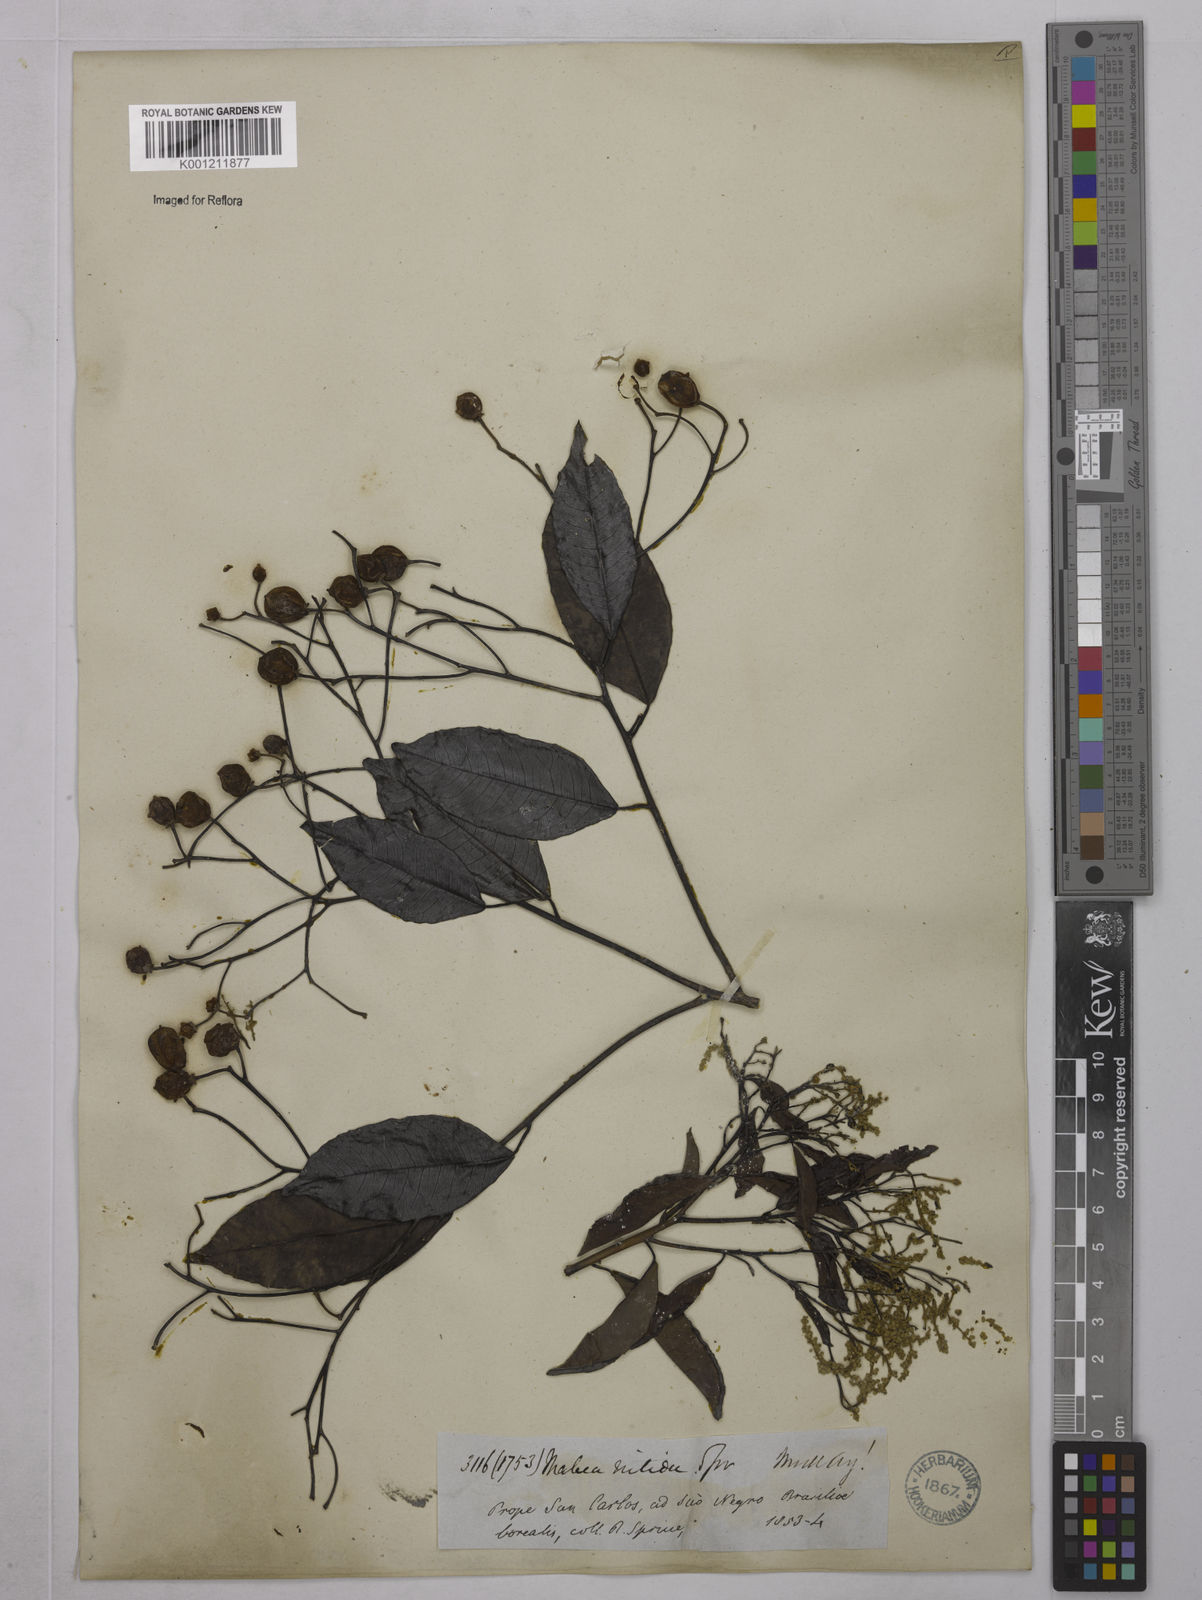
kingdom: Plantae
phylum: Tracheophyta
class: Magnoliopsida
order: Malpighiales
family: Euphorbiaceae
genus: Mabea
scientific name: Mabea nitida
